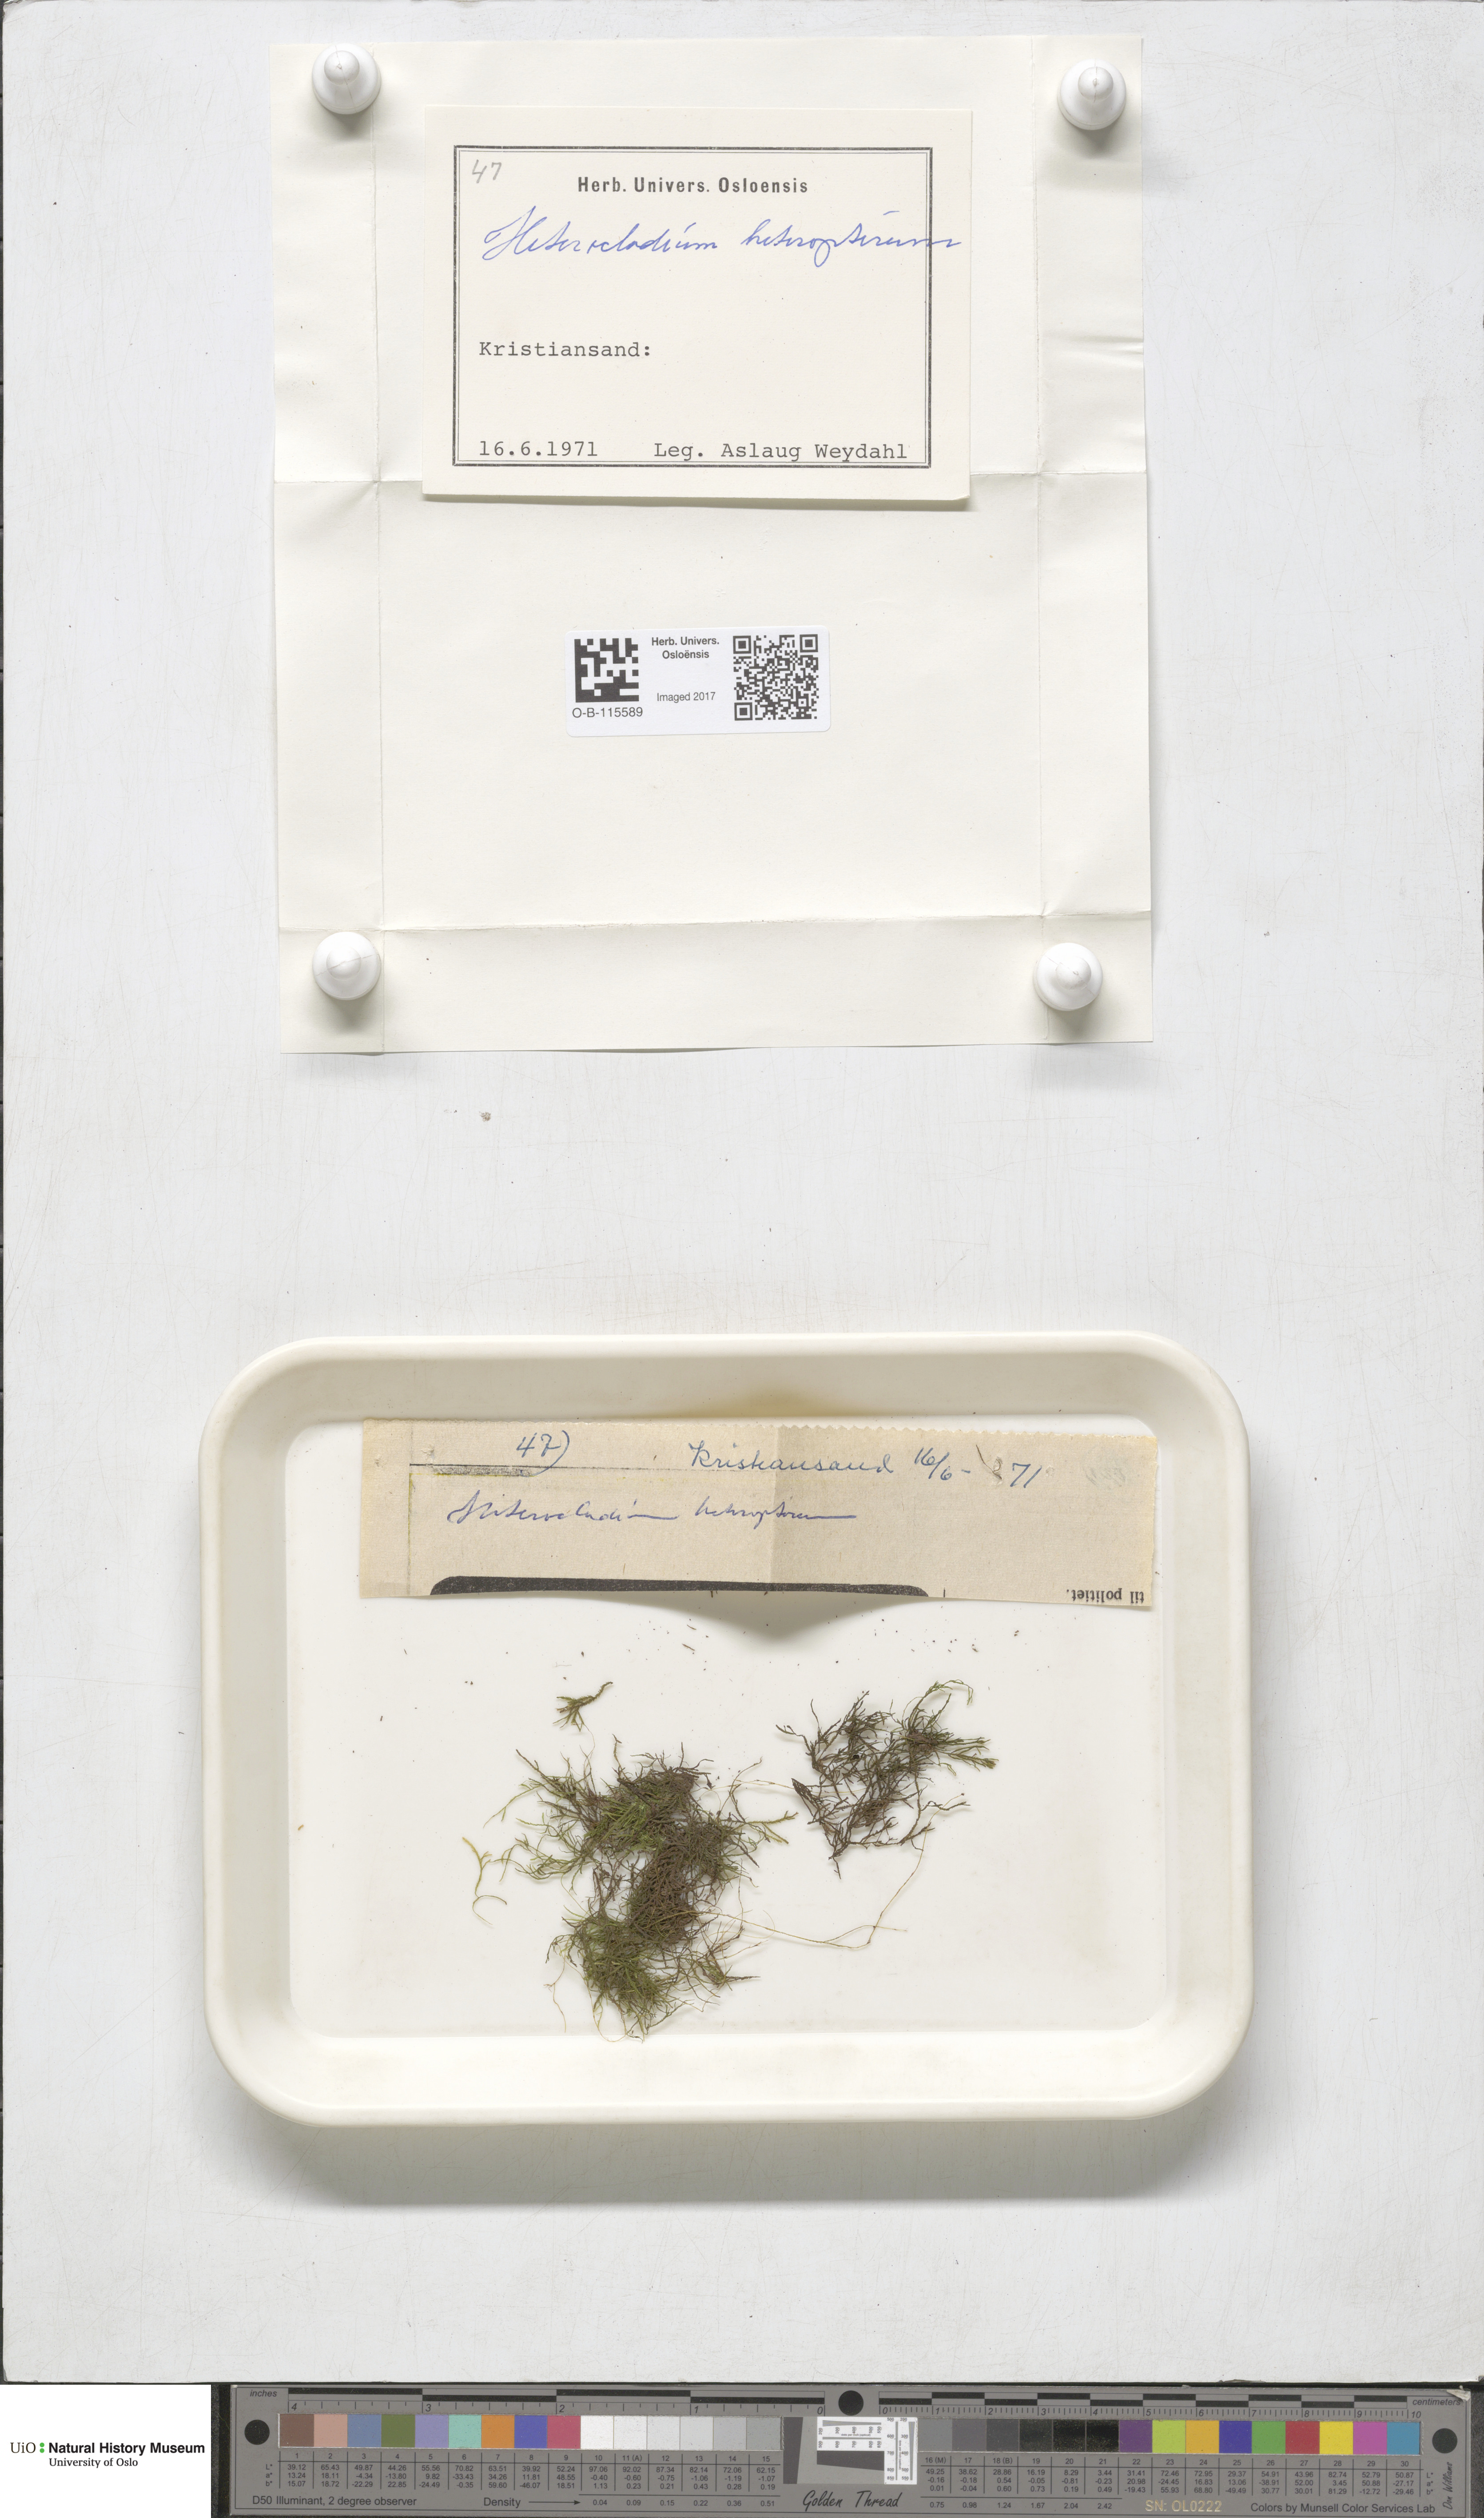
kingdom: Plantae
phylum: Bryophyta
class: Bryopsida
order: Hypnales
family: Lembophyllaceae
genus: Heterocladium
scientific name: Heterocladium heteropterum
